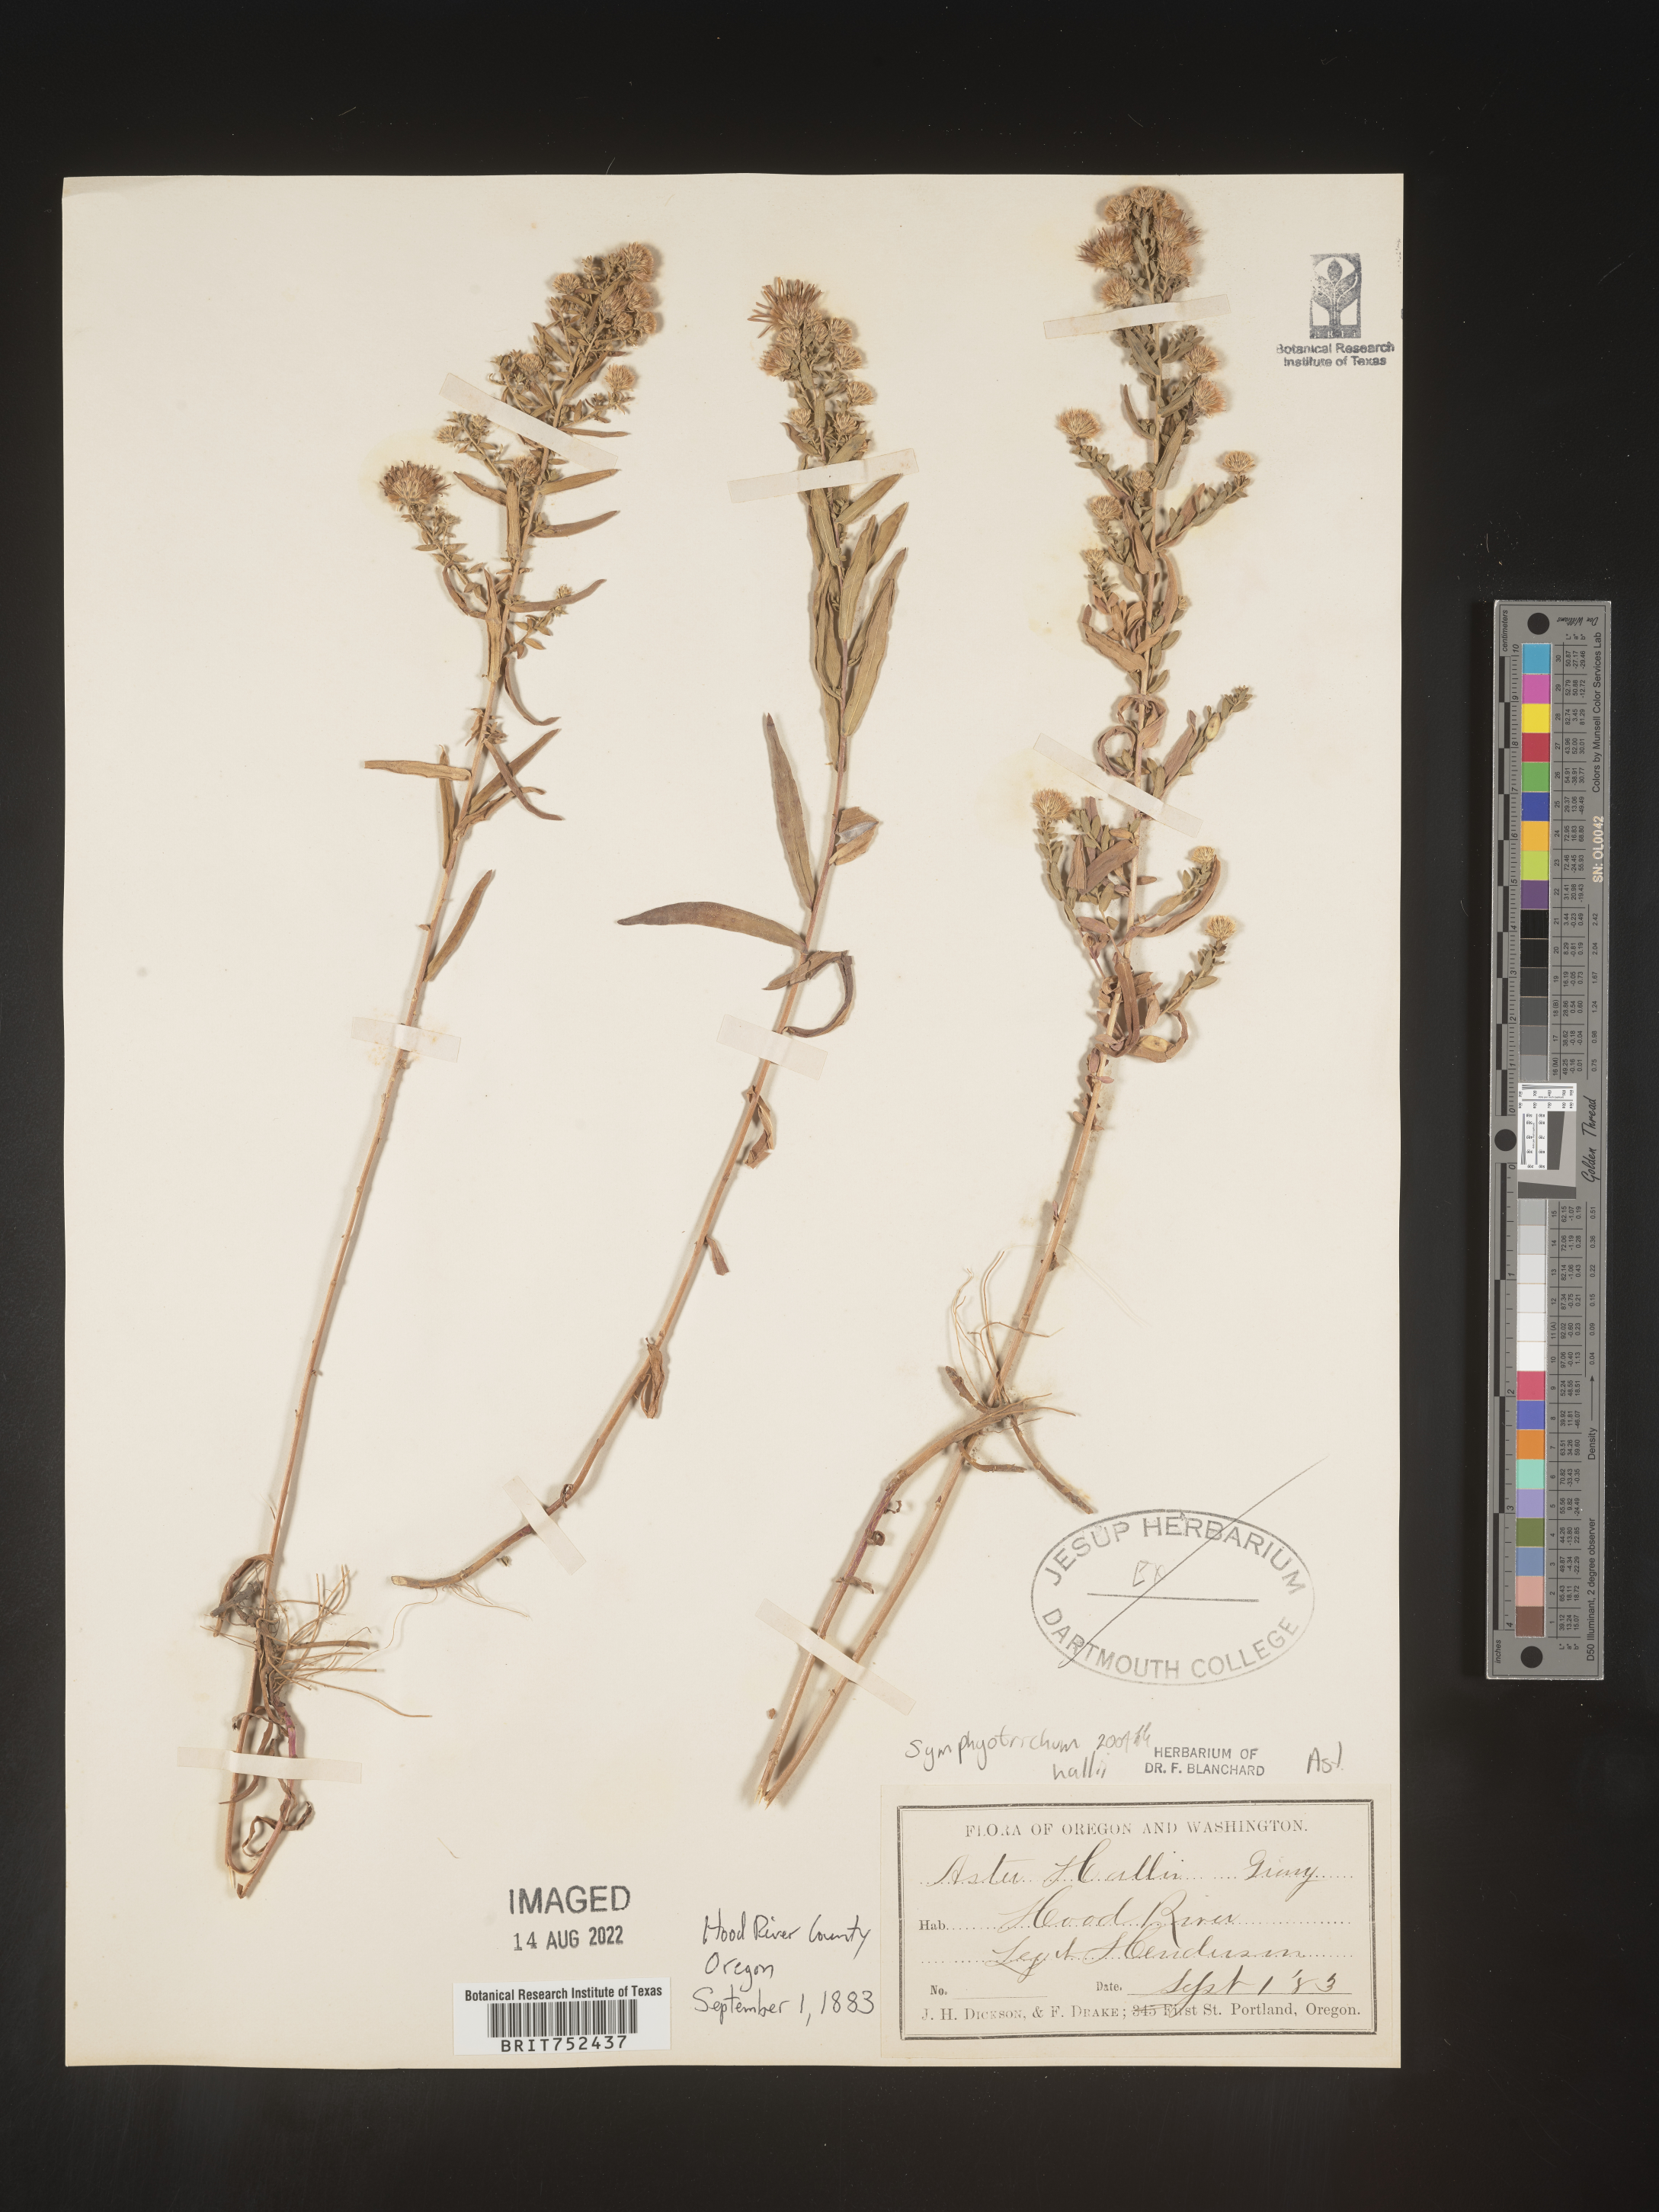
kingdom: Plantae
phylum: Tracheophyta
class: Magnoliopsida
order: Asterales
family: Asteraceae
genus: Symphyotrichum
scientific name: Symphyotrichum hallii
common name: Hall's aster
